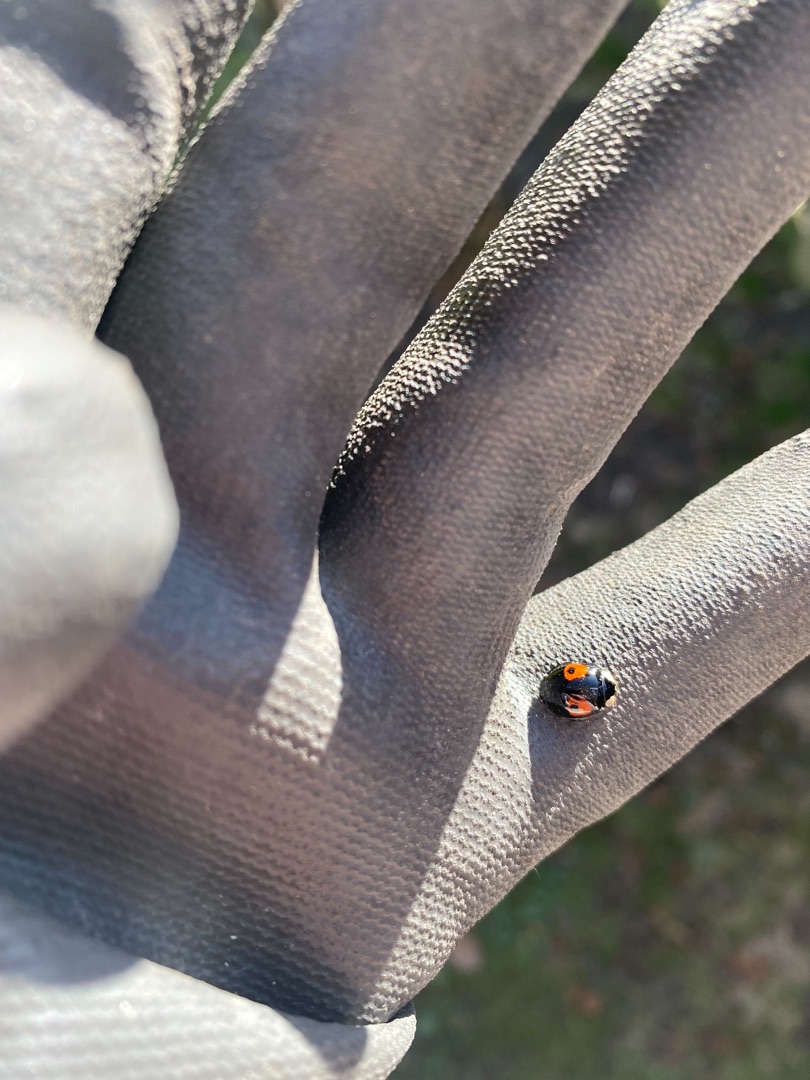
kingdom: Animalia
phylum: Arthropoda
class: Insecta
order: Coleoptera
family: Coccinellidae
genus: Harmonia
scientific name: Harmonia axyridis
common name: Harlekinmariehøne
